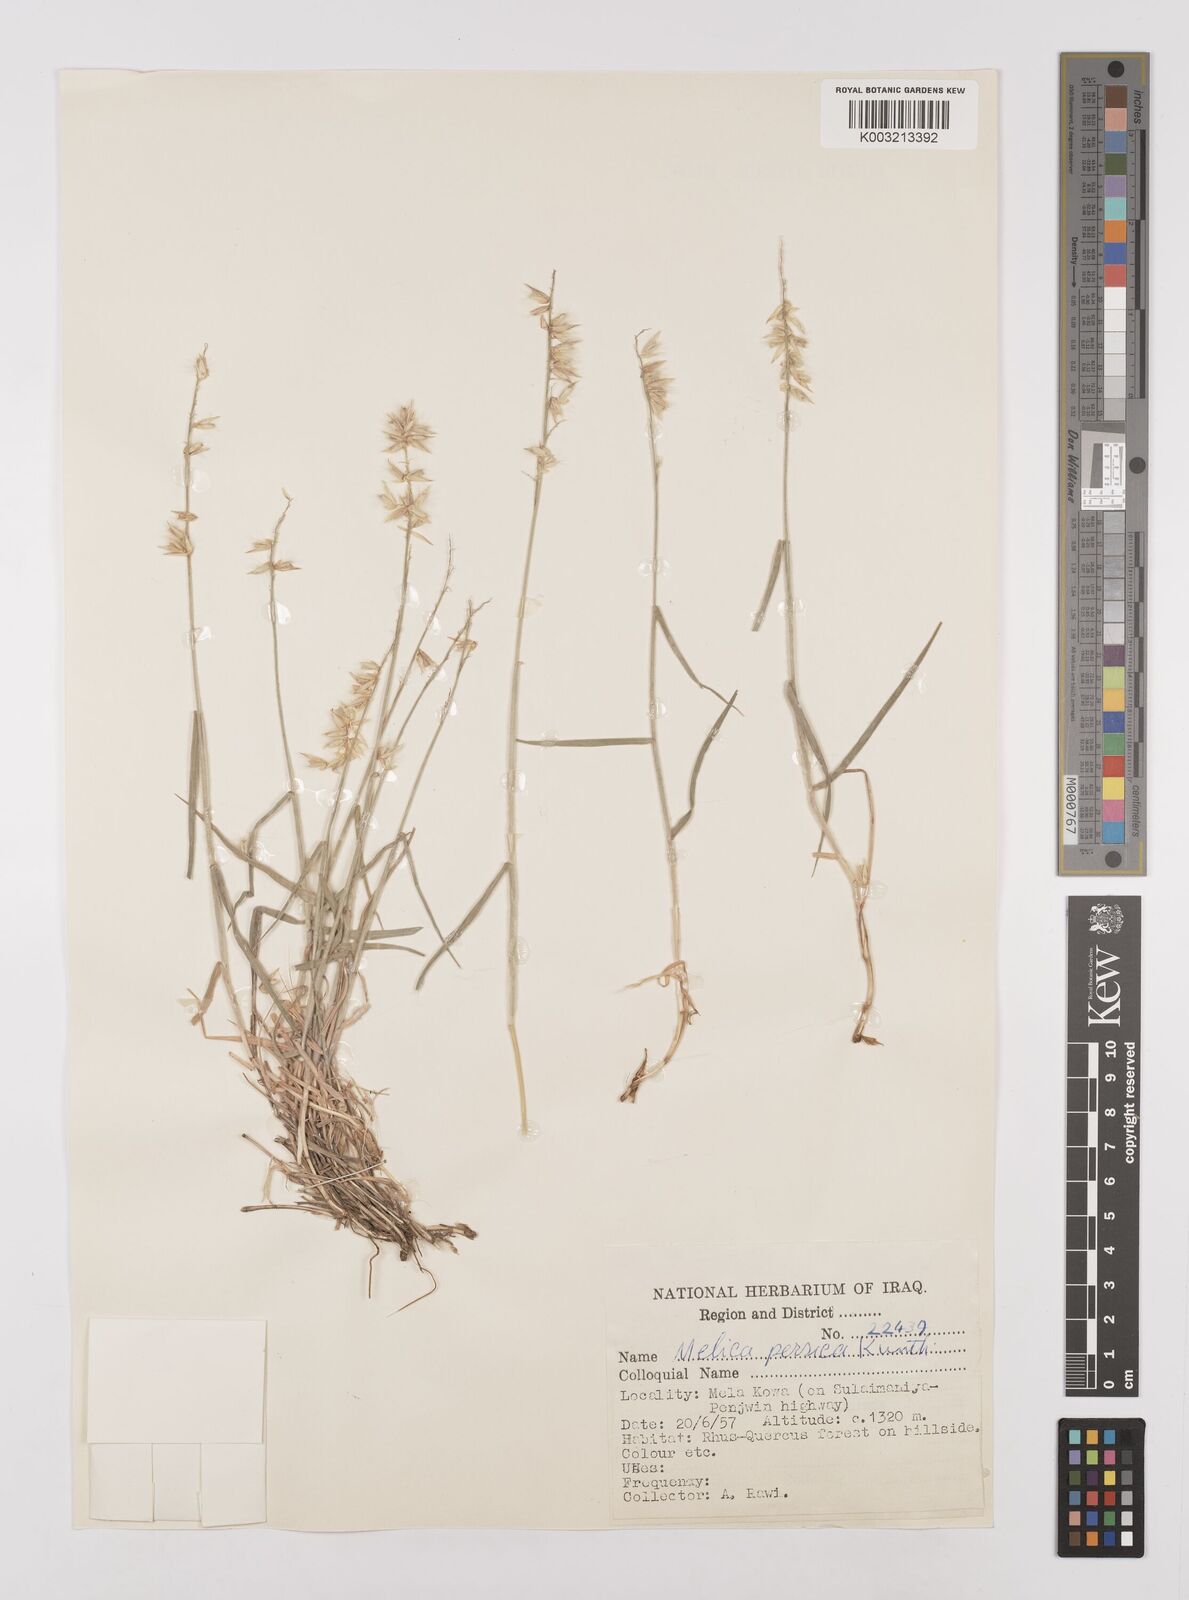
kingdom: Plantae
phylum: Tracheophyta
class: Liliopsida
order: Poales
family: Poaceae
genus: Melica
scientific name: Melica persica
